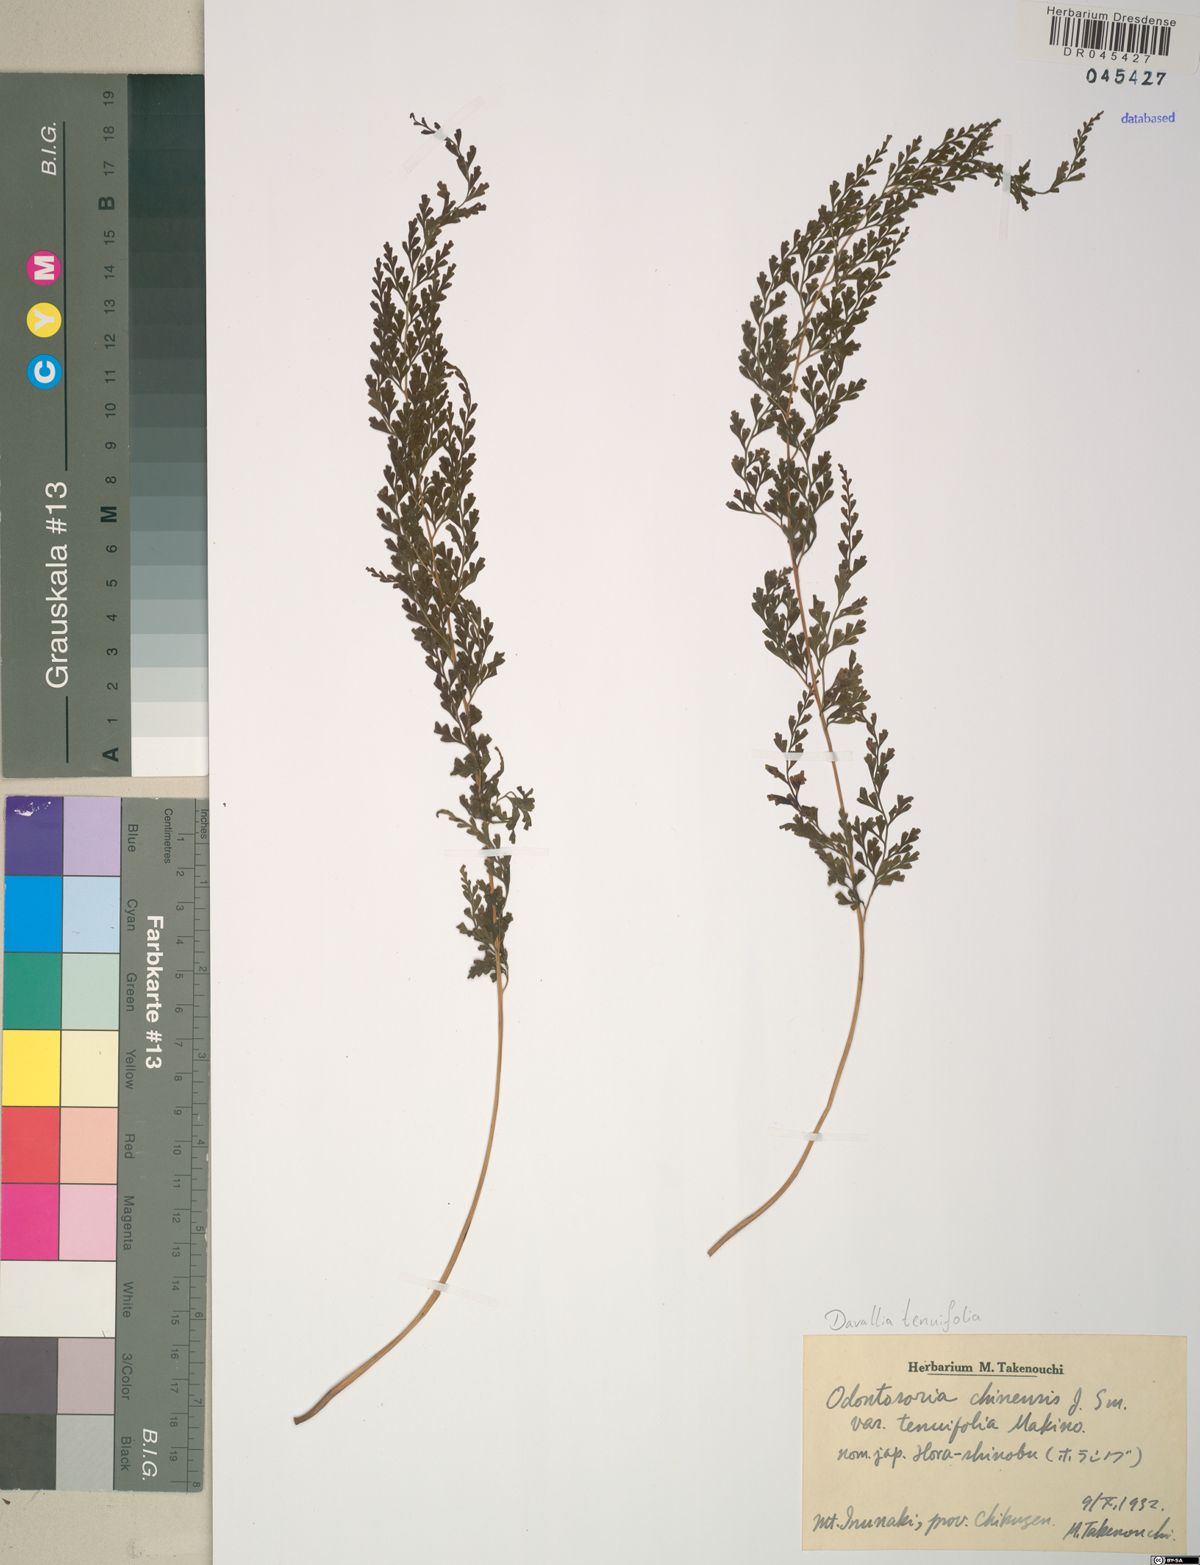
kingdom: Plantae
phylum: Tracheophyta
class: Polypodiopsida
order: Polypodiales
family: Lindsaeaceae
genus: Odontosoria
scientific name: Odontosoria chinensis
